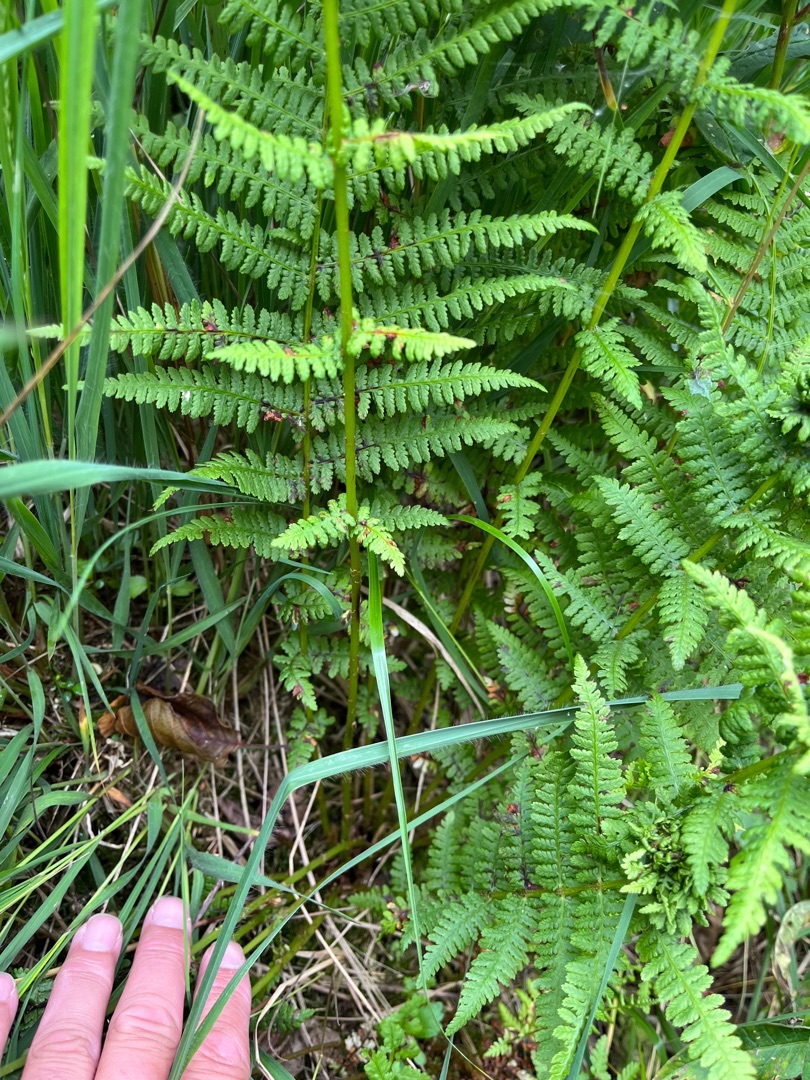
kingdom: Plantae
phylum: Tracheophyta
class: Polypodiopsida
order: Polypodiales
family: Athyriaceae
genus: Athyrium
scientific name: Athyrium filix-femina
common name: Fjerbregne
